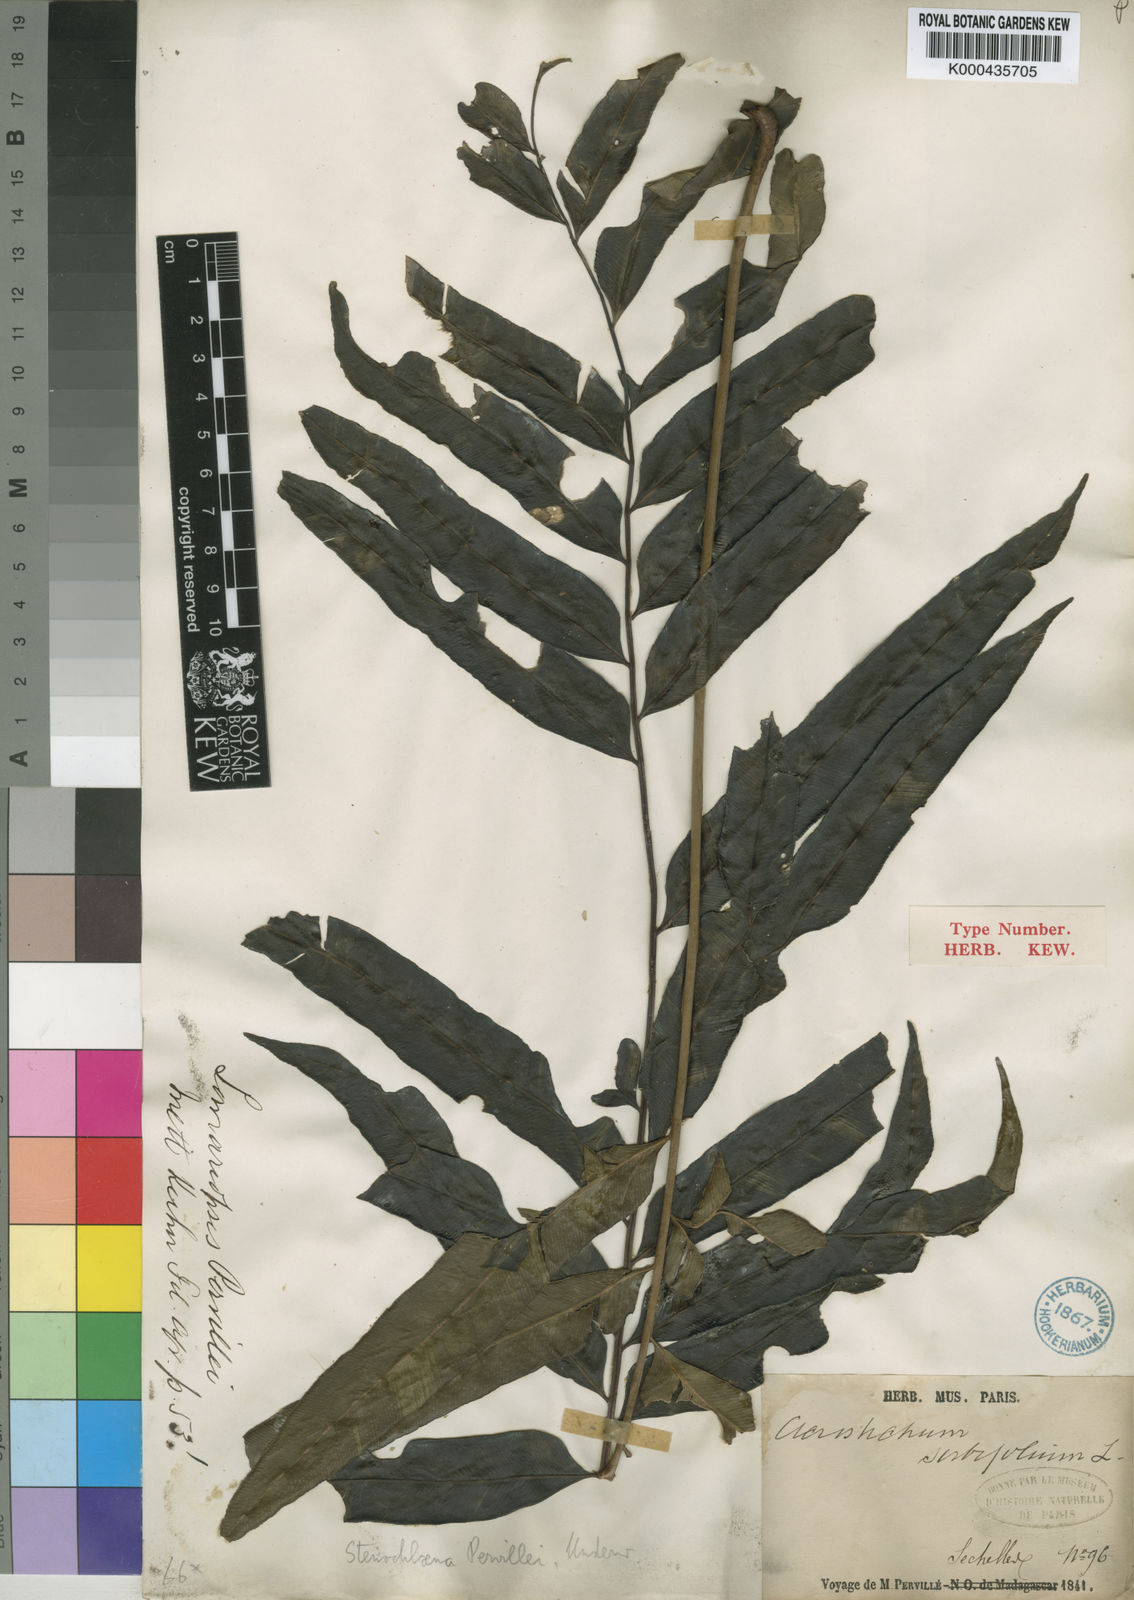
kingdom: Plantae
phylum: Tracheophyta
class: Polypodiopsida
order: Polypodiales
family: Lomariopsidaceae
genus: Lomariopsis
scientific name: Lomariopsis pervillei
